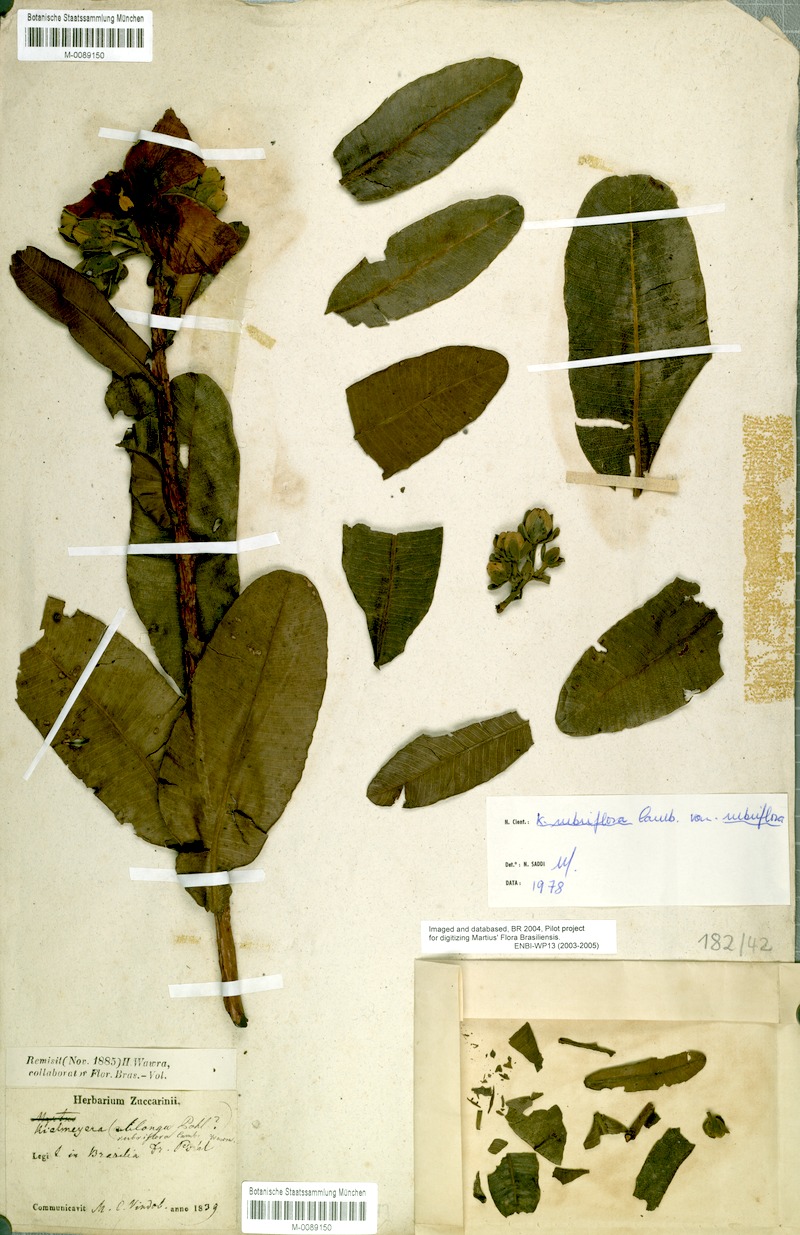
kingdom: Plantae
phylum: Tracheophyta
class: Magnoliopsida
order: Malpighiales
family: Calophyllaceae
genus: Kielmeyera
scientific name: Kielmeyera rubriflora
